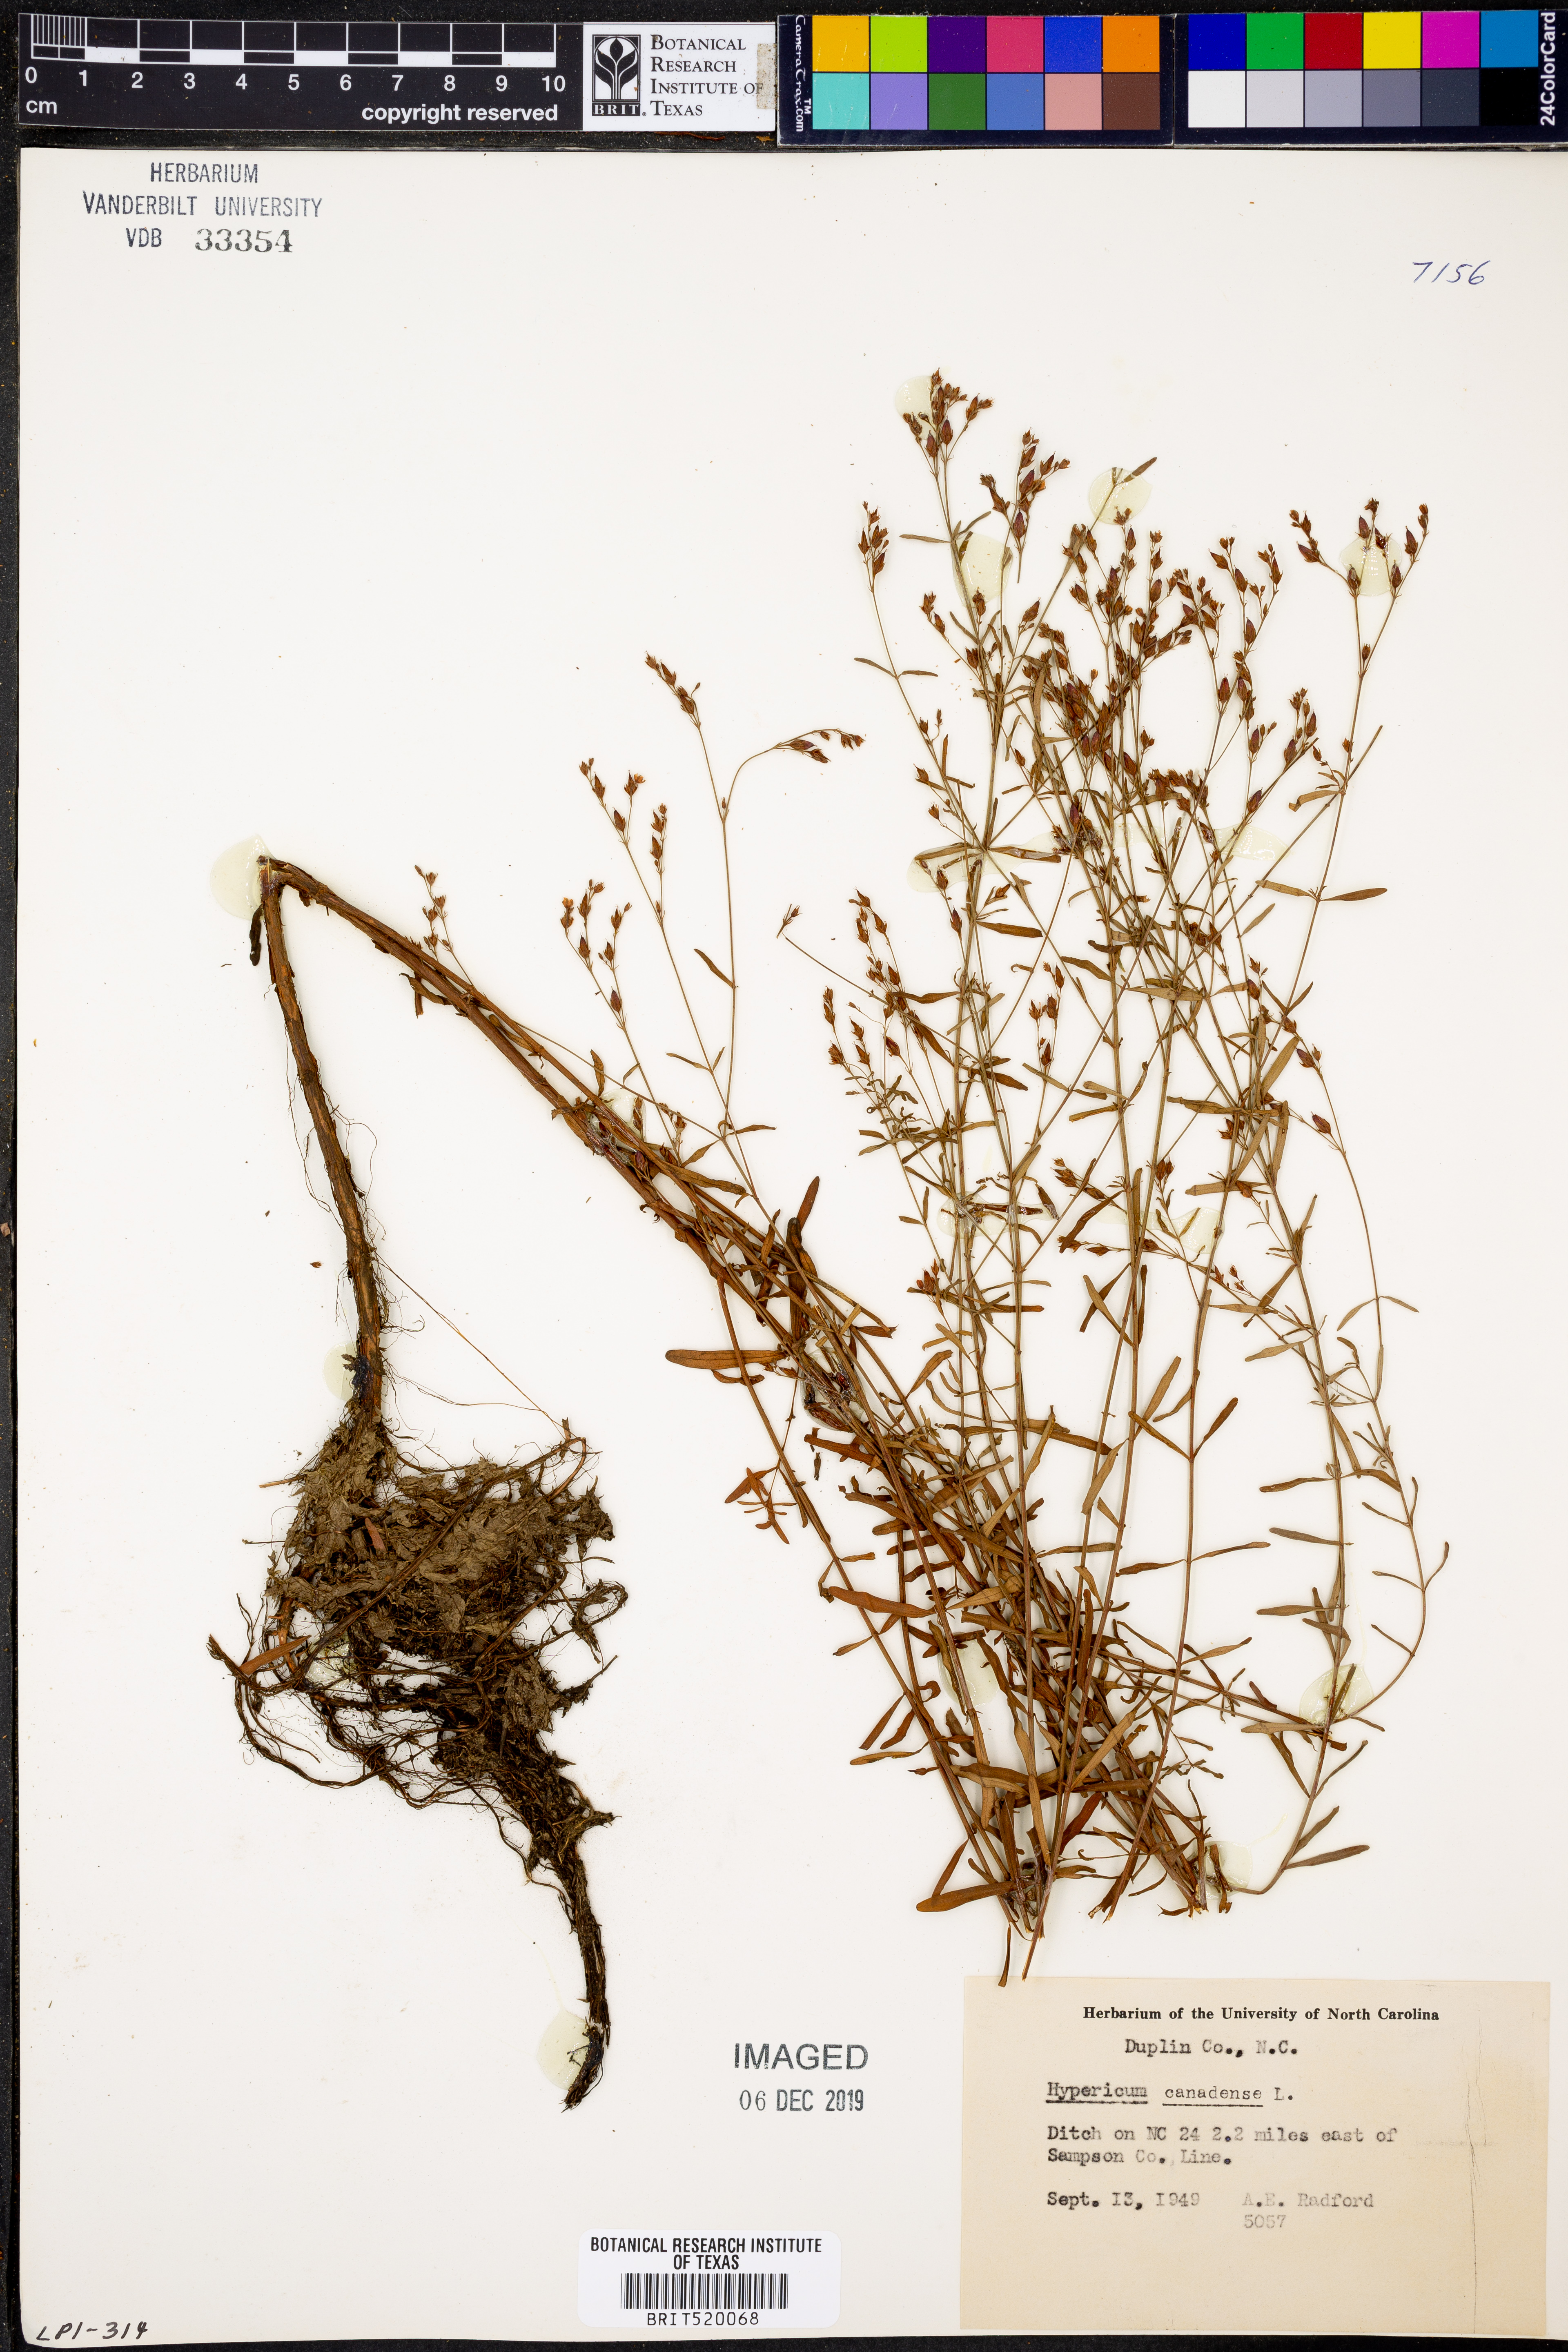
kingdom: Plantae
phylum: Tracheophyta
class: Magnoliopsida
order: Malpighiales
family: Hypericaceae
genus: Hypericum
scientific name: Hypericum canadense
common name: Irish st. john's-wort
